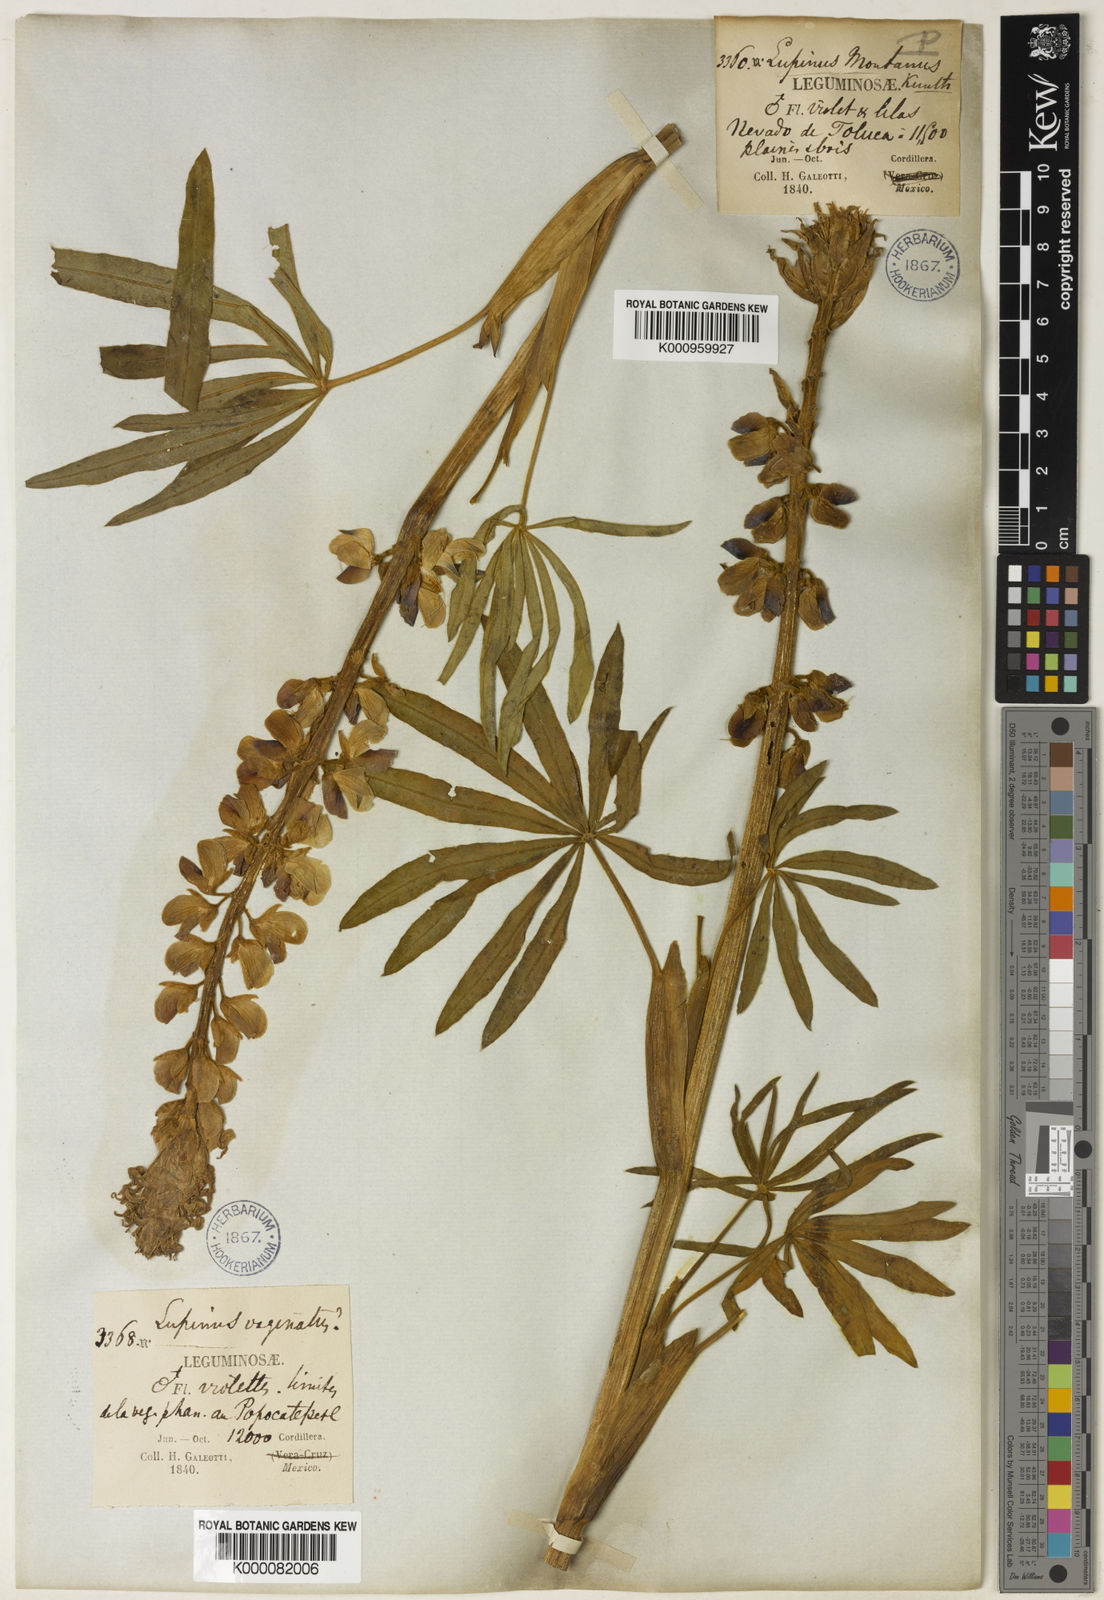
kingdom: Plantae
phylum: Tracheophyta
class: Magnoliopsida
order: Fabales
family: Fabaceae
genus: Lupinus
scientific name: Lupinus montanus
